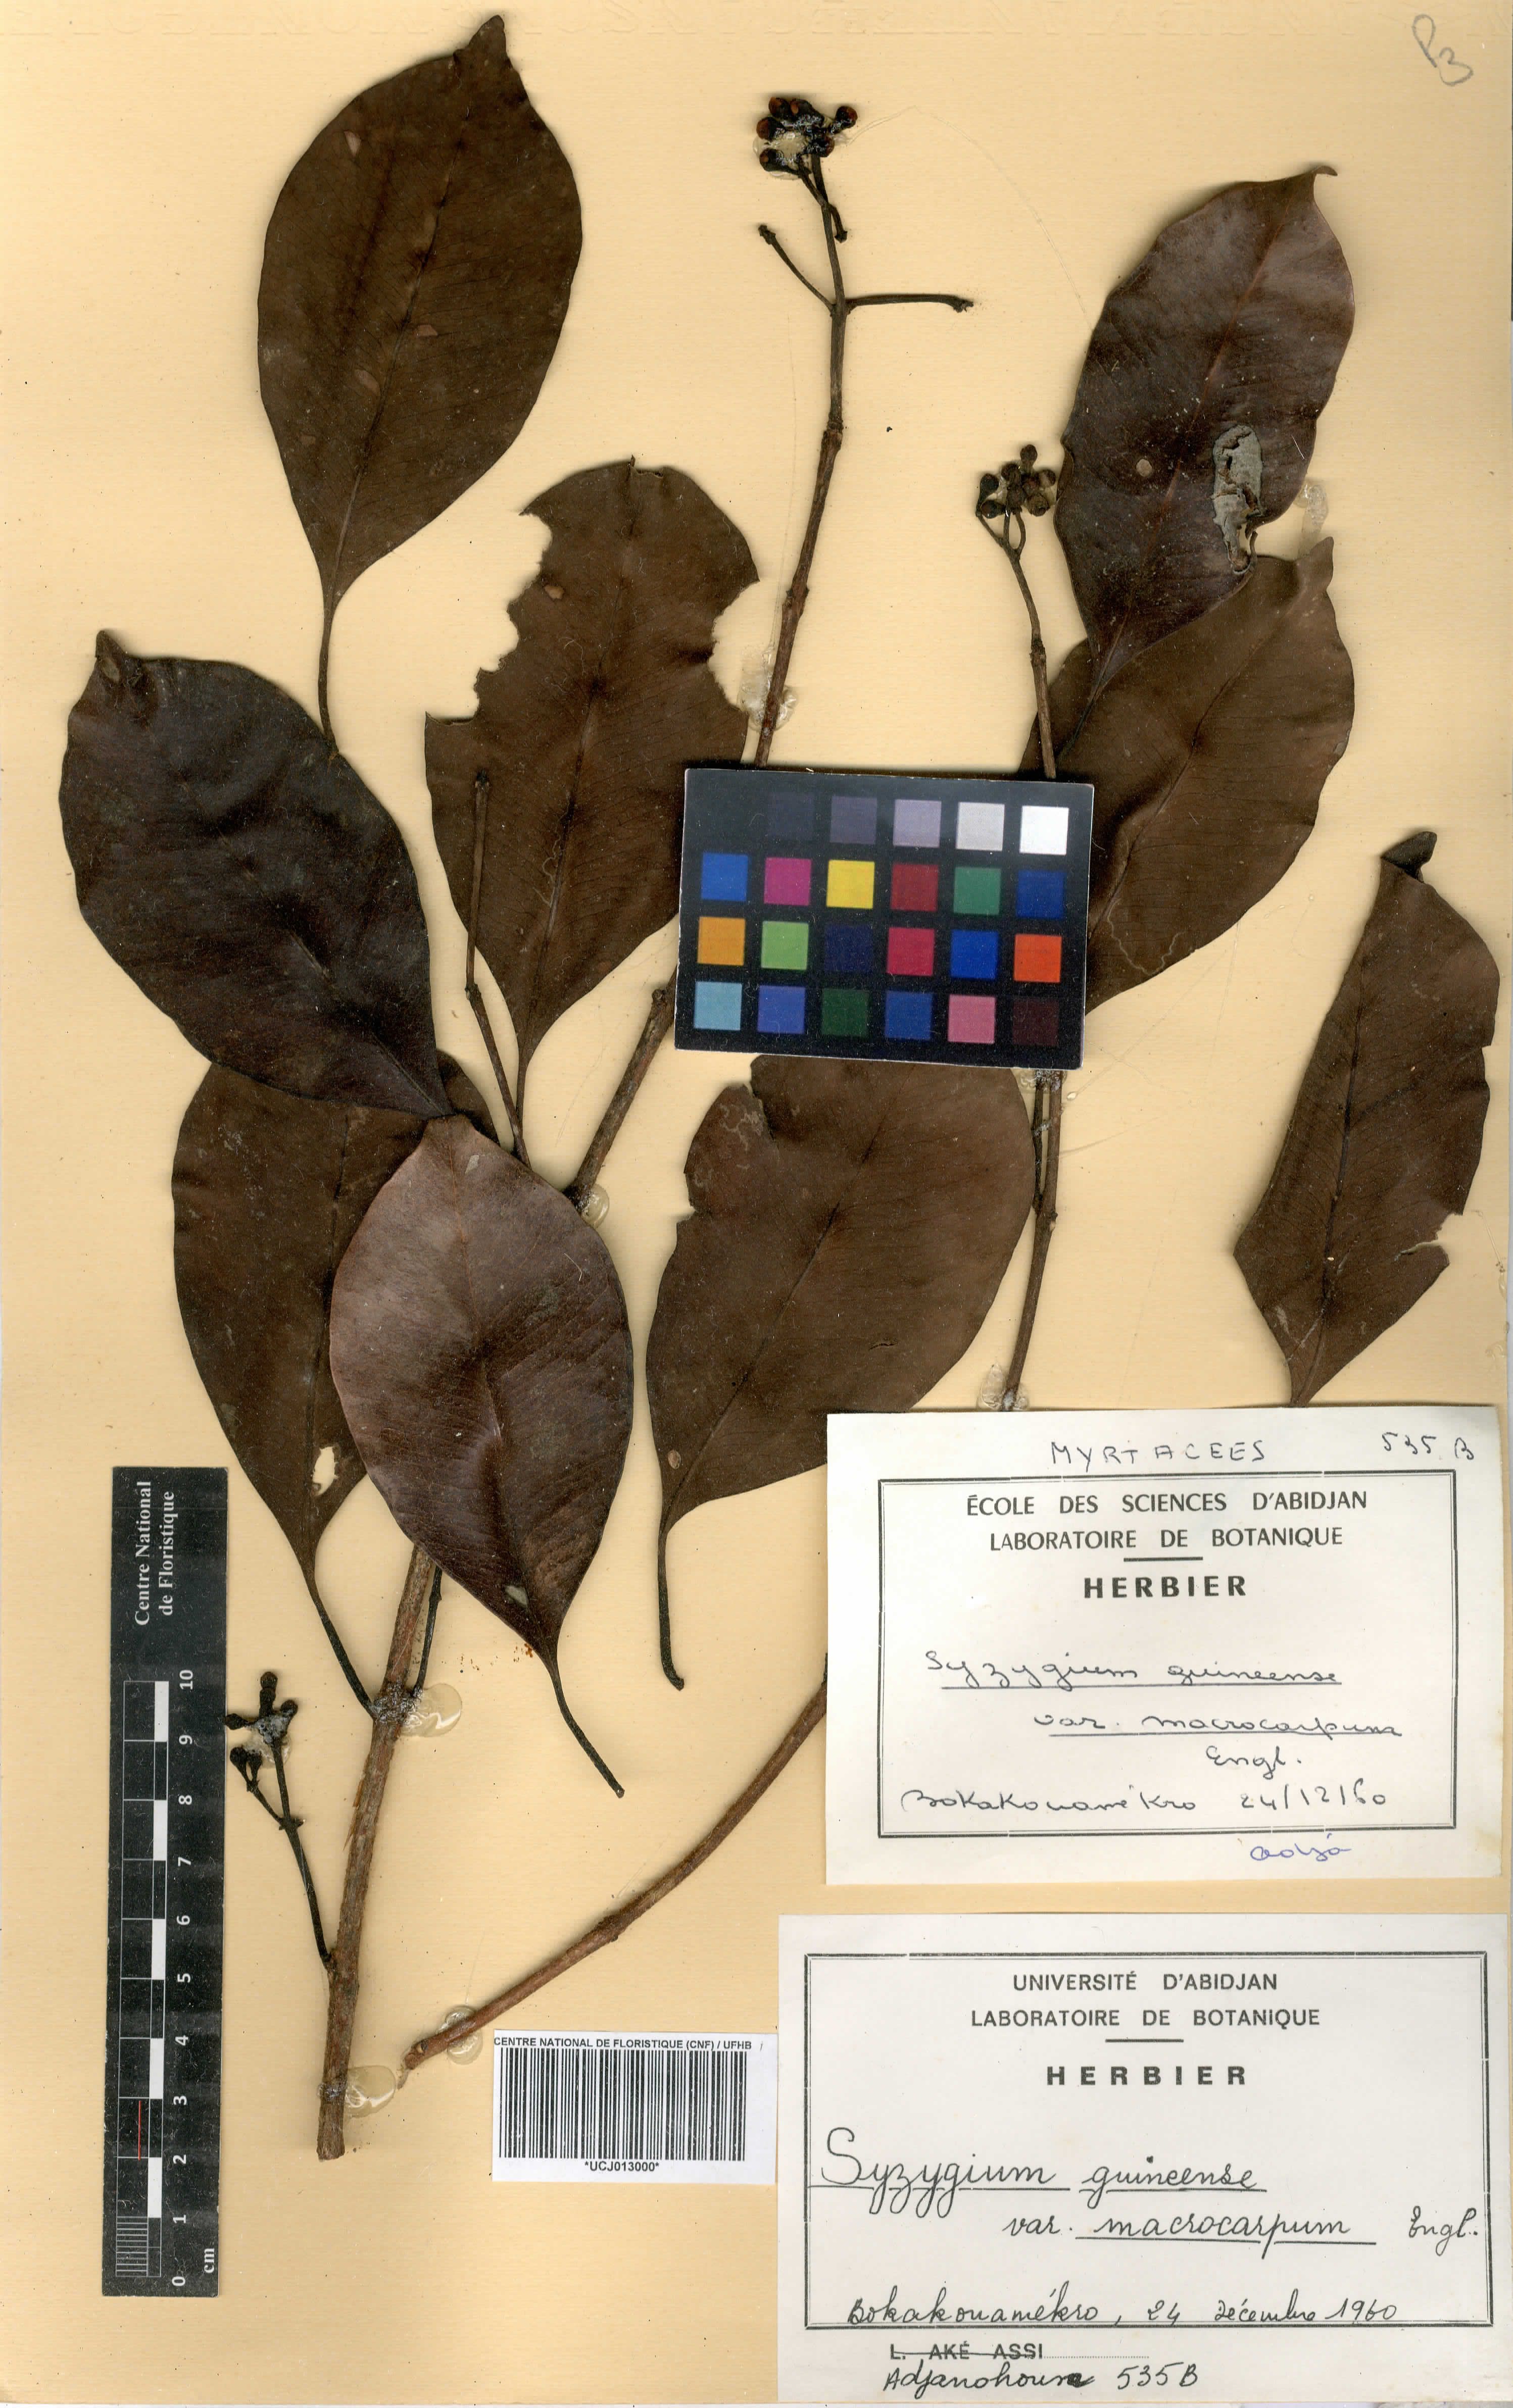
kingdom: Plantae
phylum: Tracheophyta
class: Magnoliopsida
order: Myrtales
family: Myrtaceae
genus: Syzygium
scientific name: Syzygium guineense
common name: Water-pear
